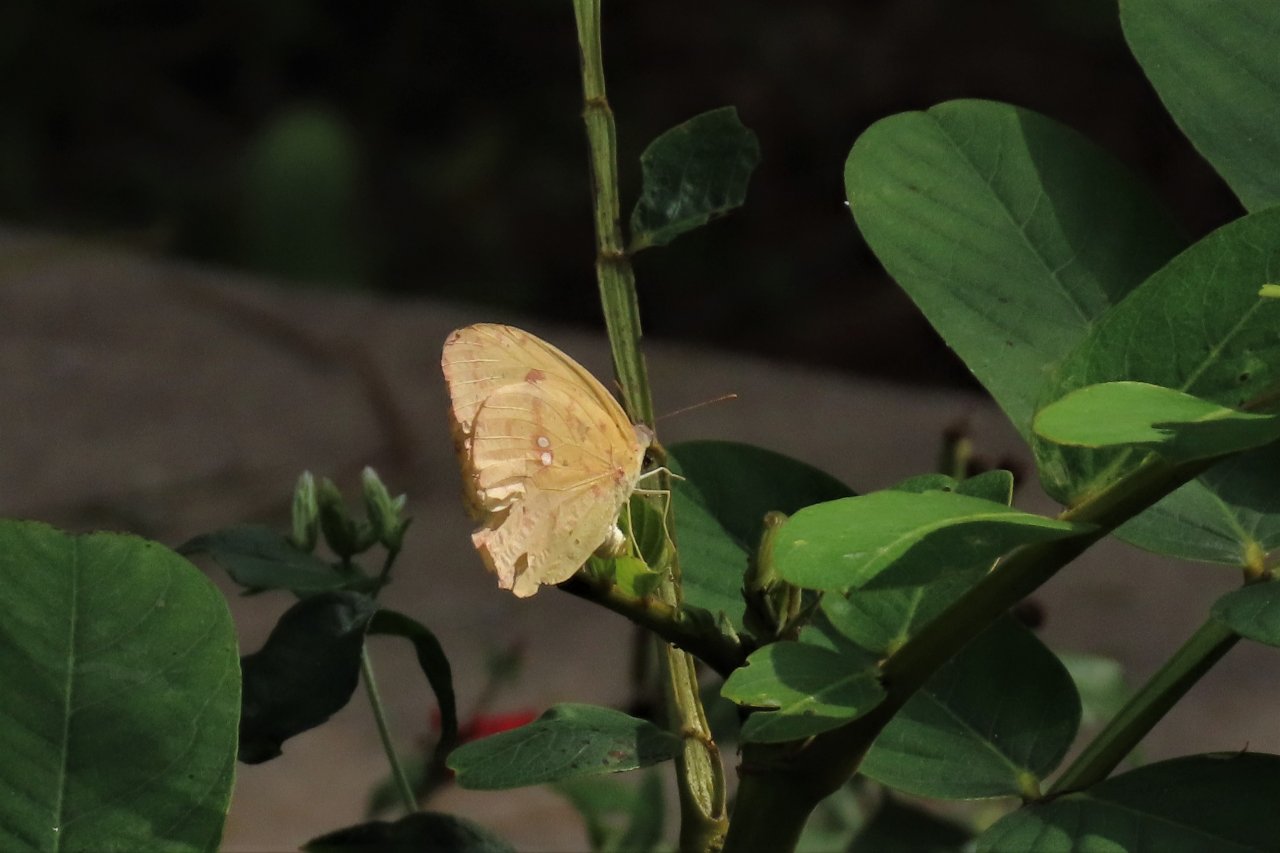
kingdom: Animalia
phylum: Arthropoda
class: Insecta
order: Lepidoptera
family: Pieridae
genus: Phoebis
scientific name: Phoebis sennae
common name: Cloudless Sulphur
